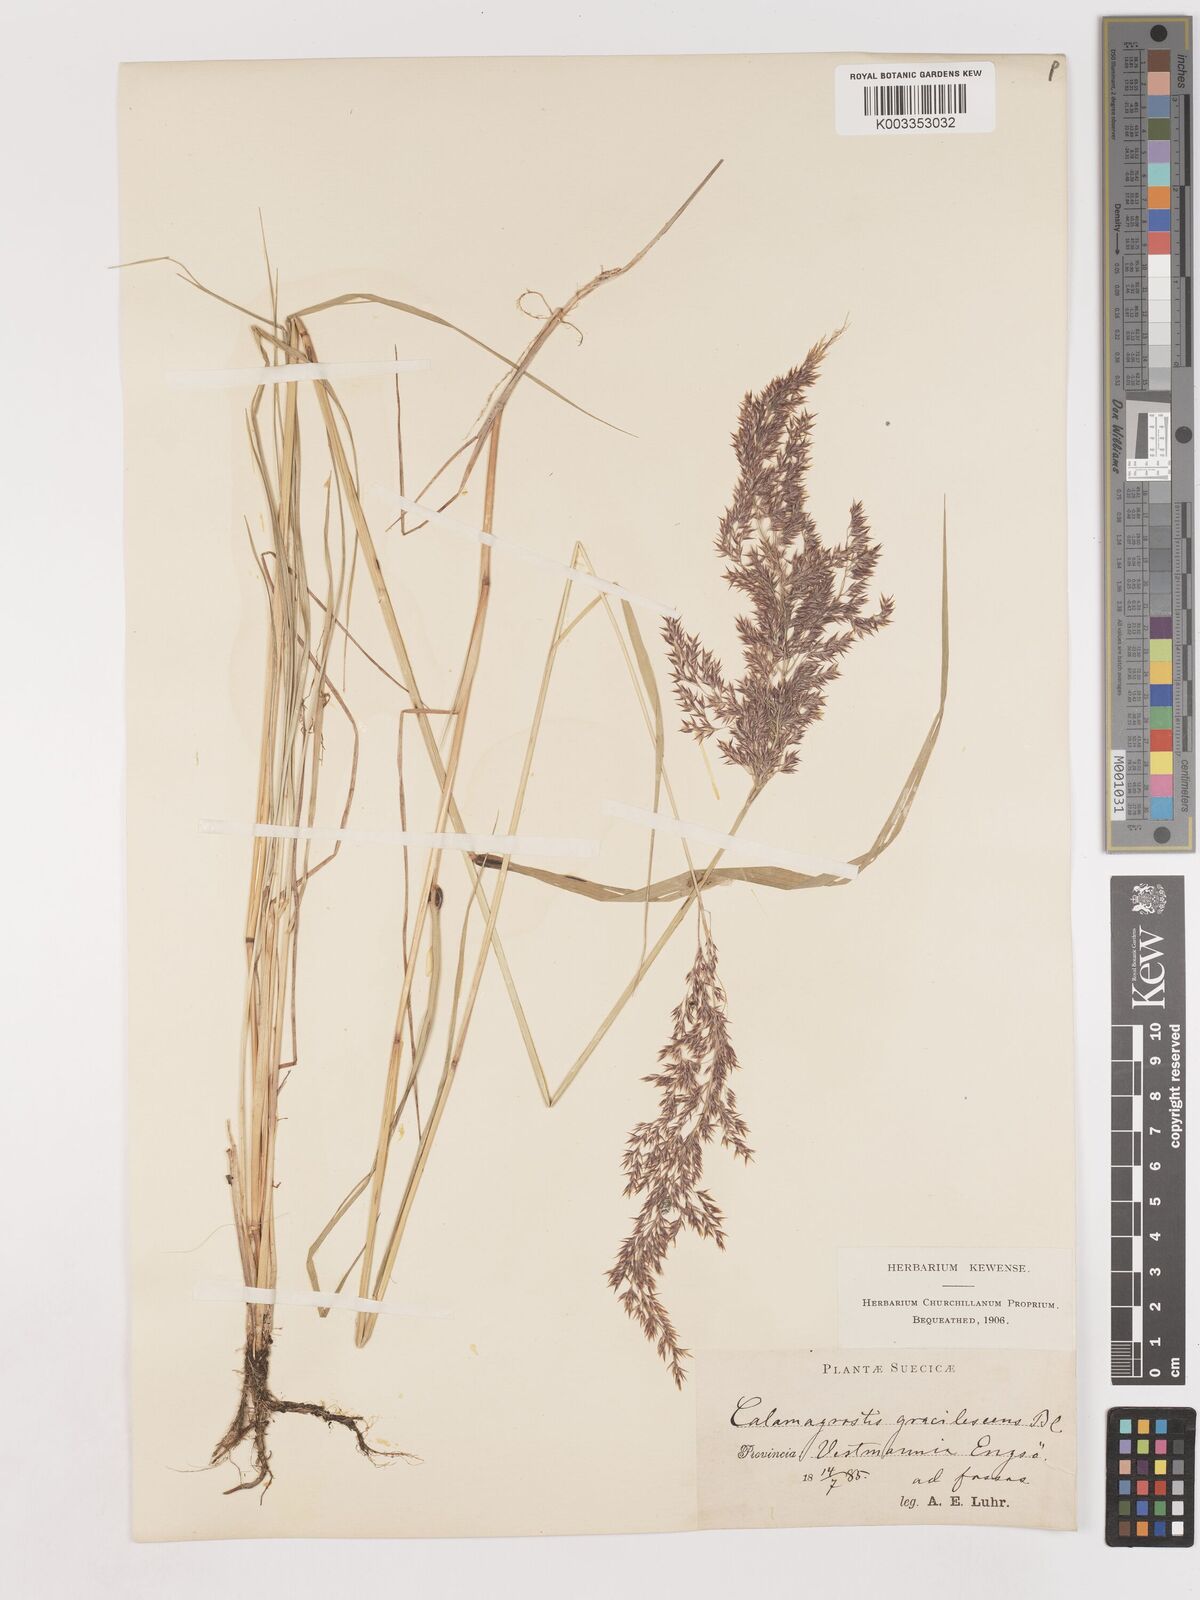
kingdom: Plantae
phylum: Tracheophyta
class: Liliopsida
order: Poales
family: Poaceae
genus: Calamagrostis
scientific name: Calamagrostis canescens
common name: Purple small-reed
